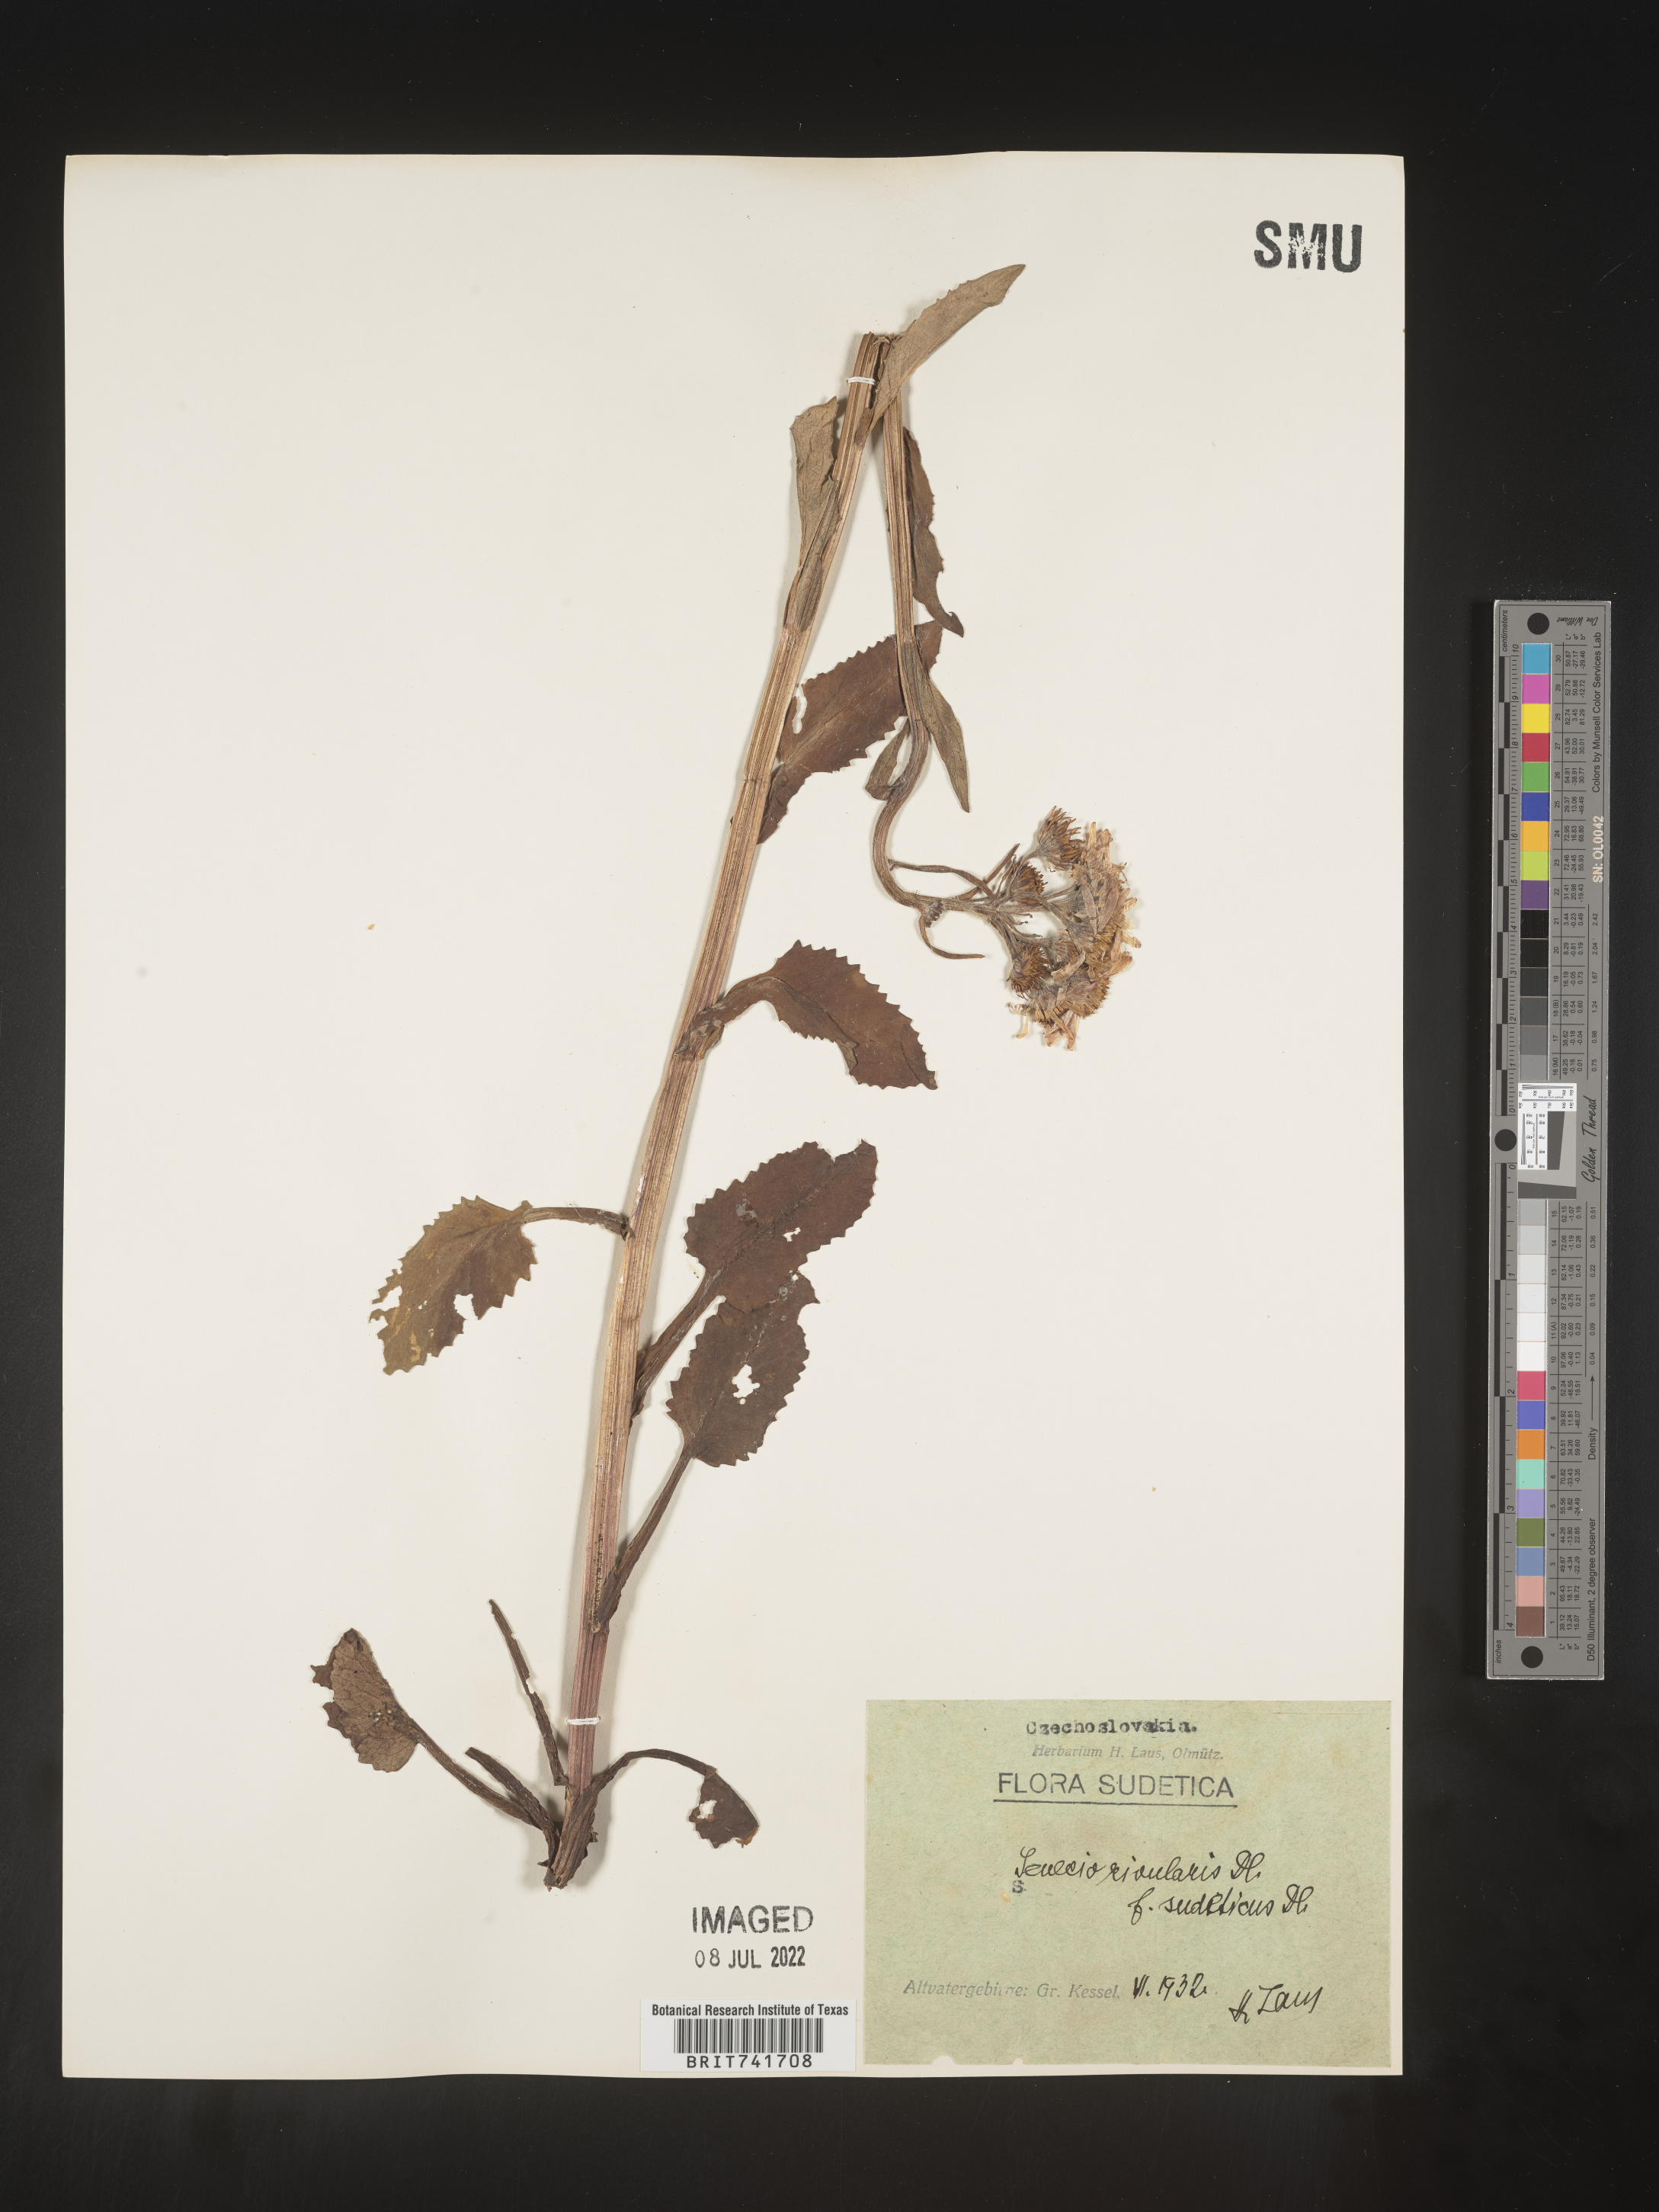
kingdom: Plantae
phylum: Tracheophyta
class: Magnoliopsida
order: Asterales
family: Asteraceae
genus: Senecio
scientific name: Senecio
